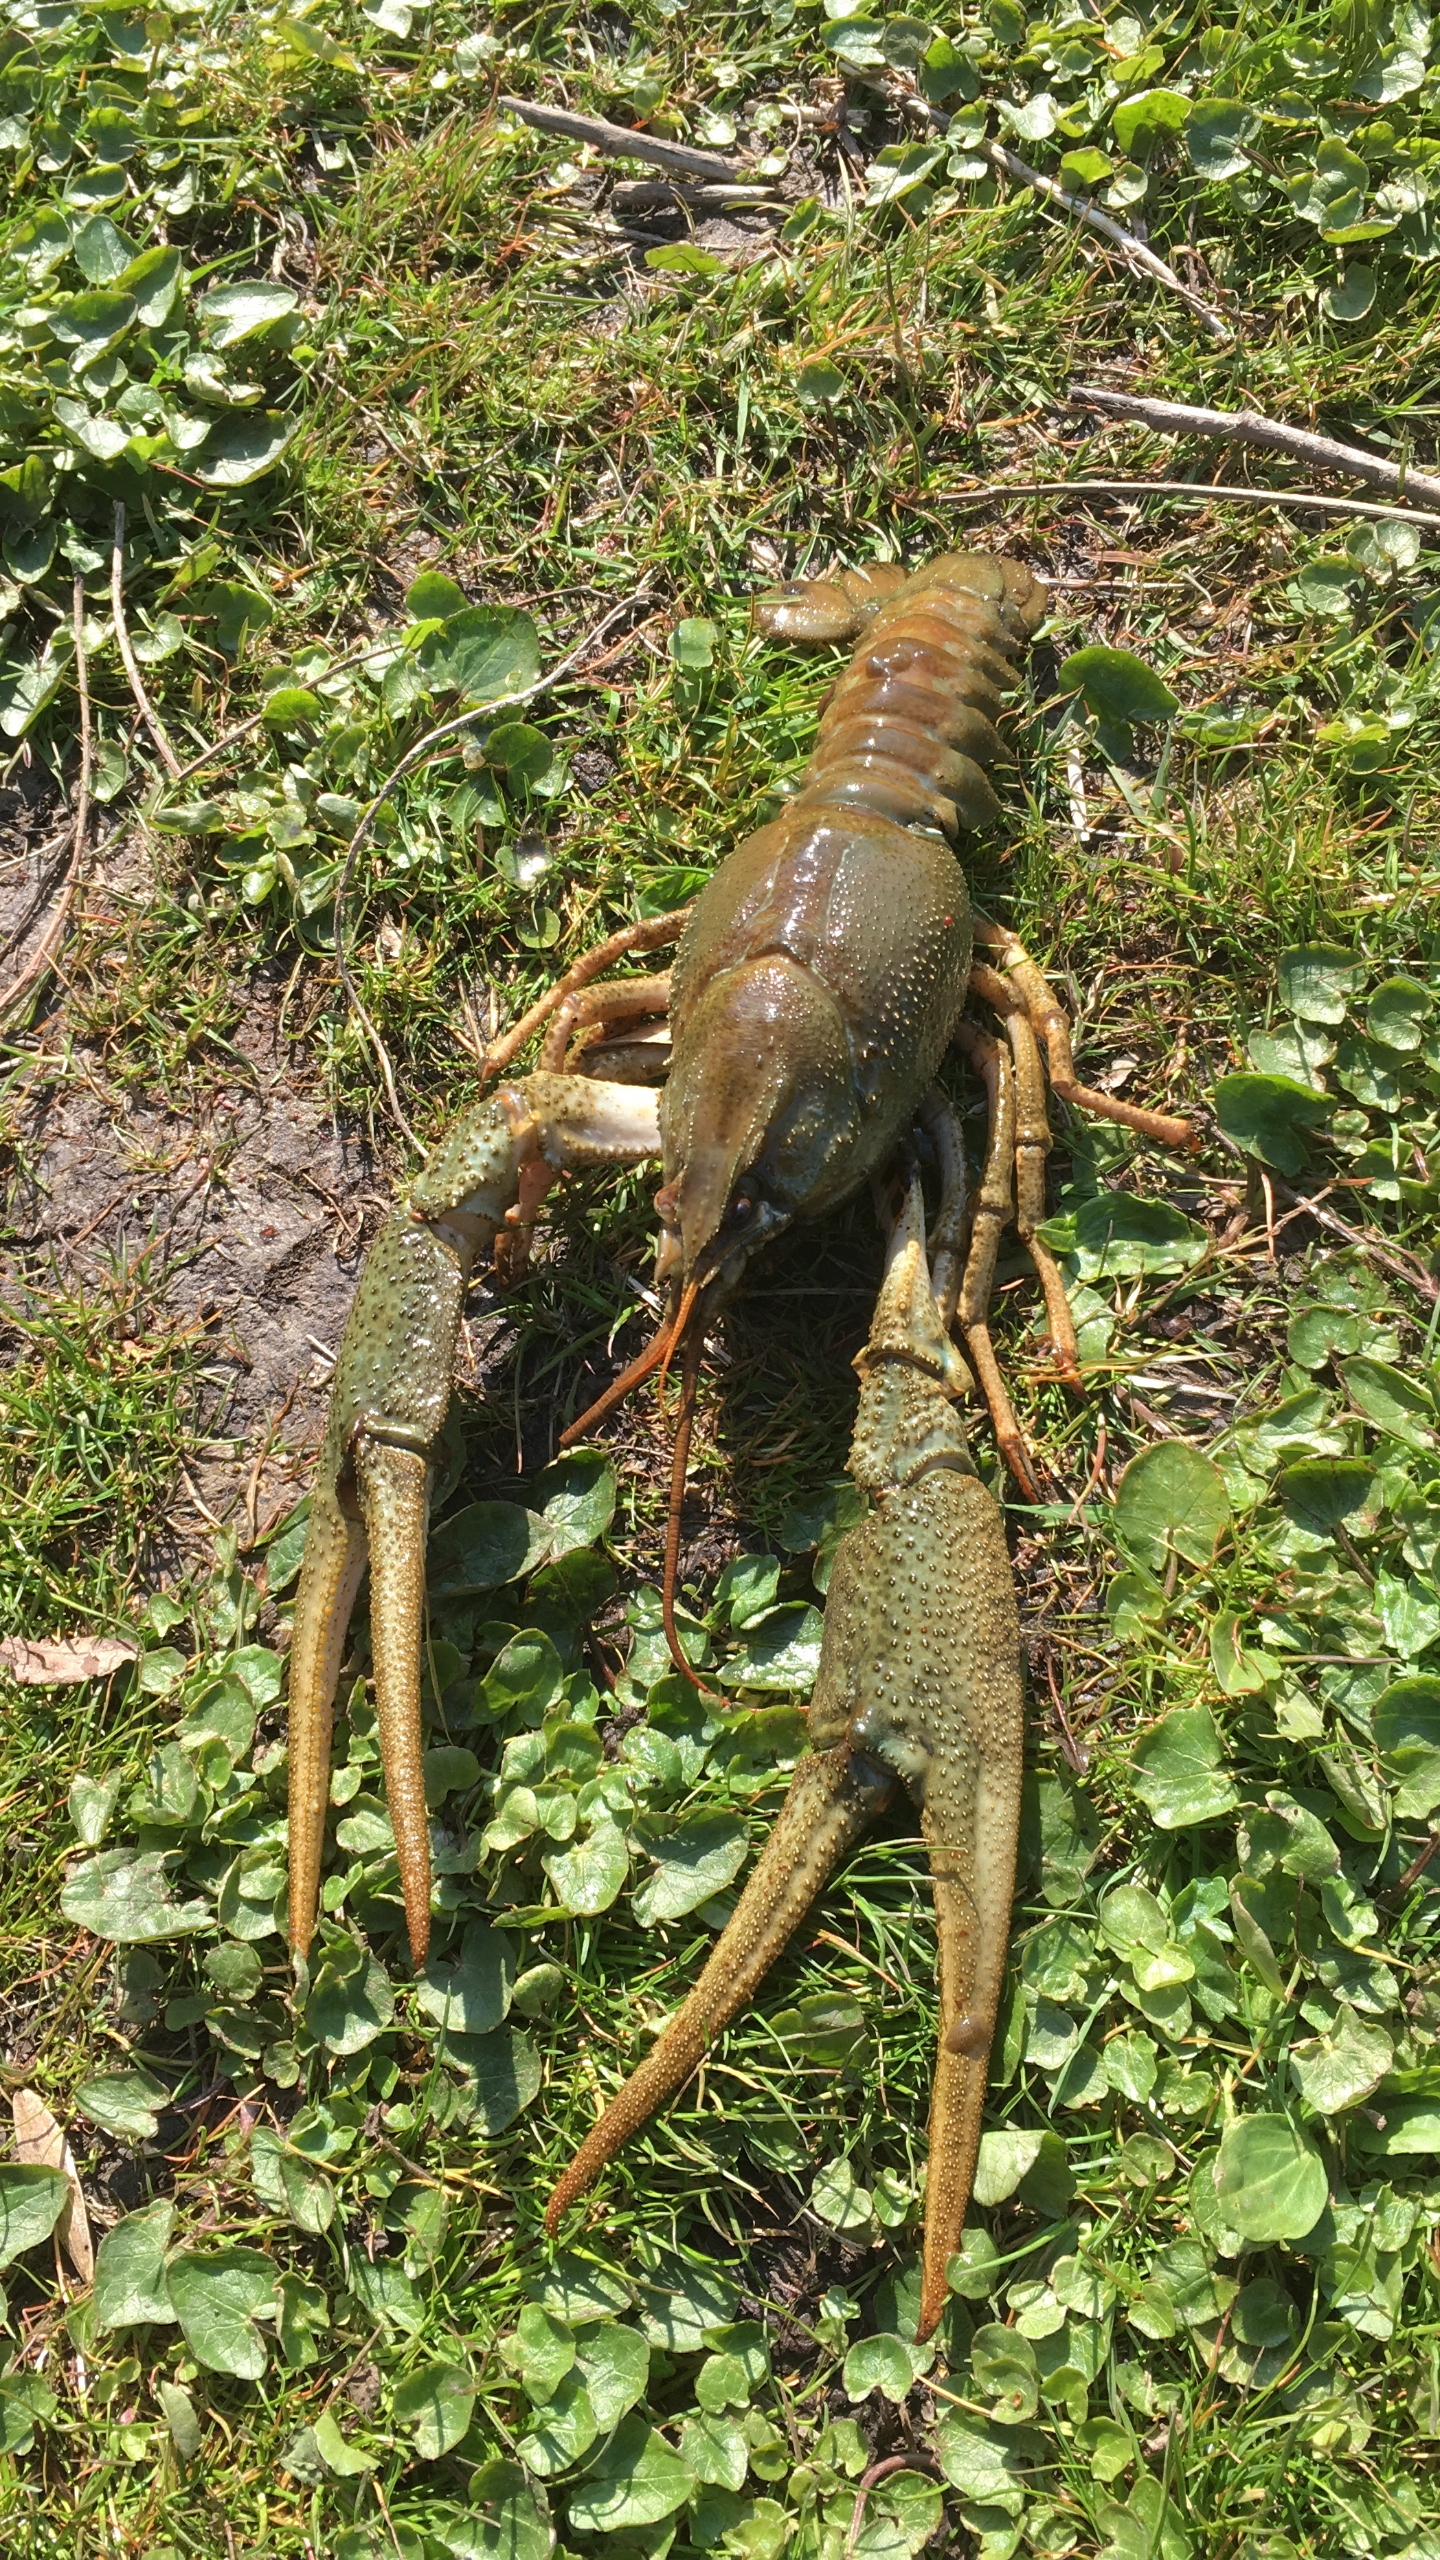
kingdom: Animalia
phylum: Arthropoda
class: Malacostraca
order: Decapoda
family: Astacidae
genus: Pontastacus
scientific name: Pontastacus leptodactylus
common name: Galizisk sumpkrebs
